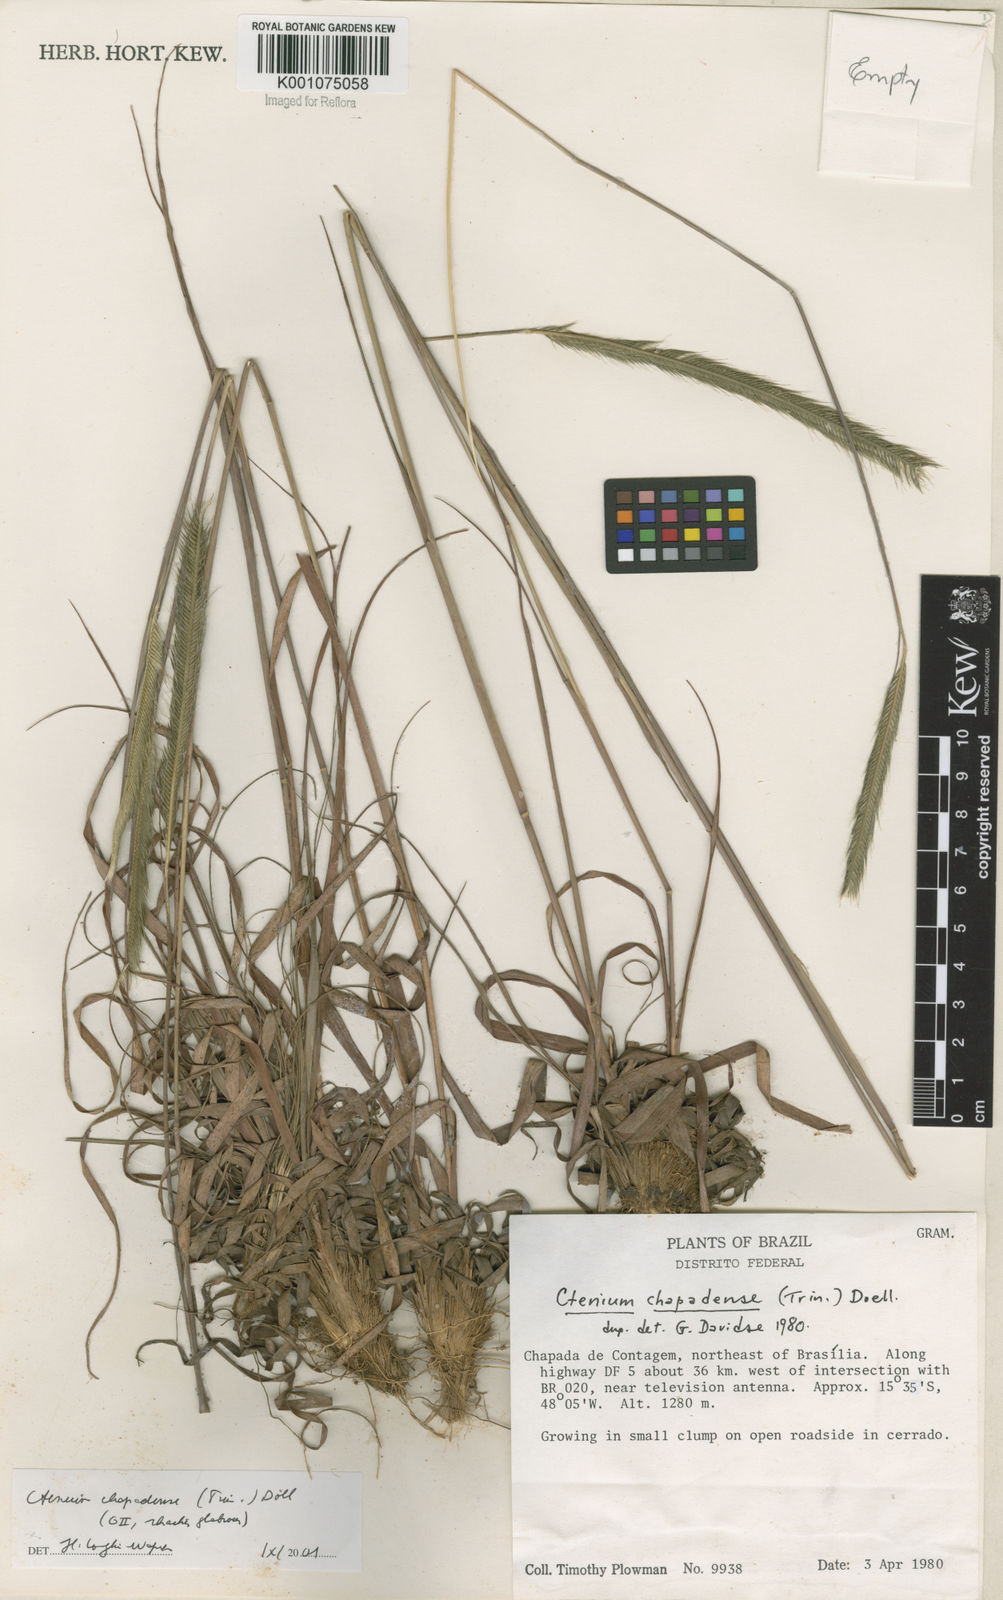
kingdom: Plantae
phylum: Tracheophyta
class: Liliopsida
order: Poales
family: Poaceae
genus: Ctenium
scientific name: Ctenium
